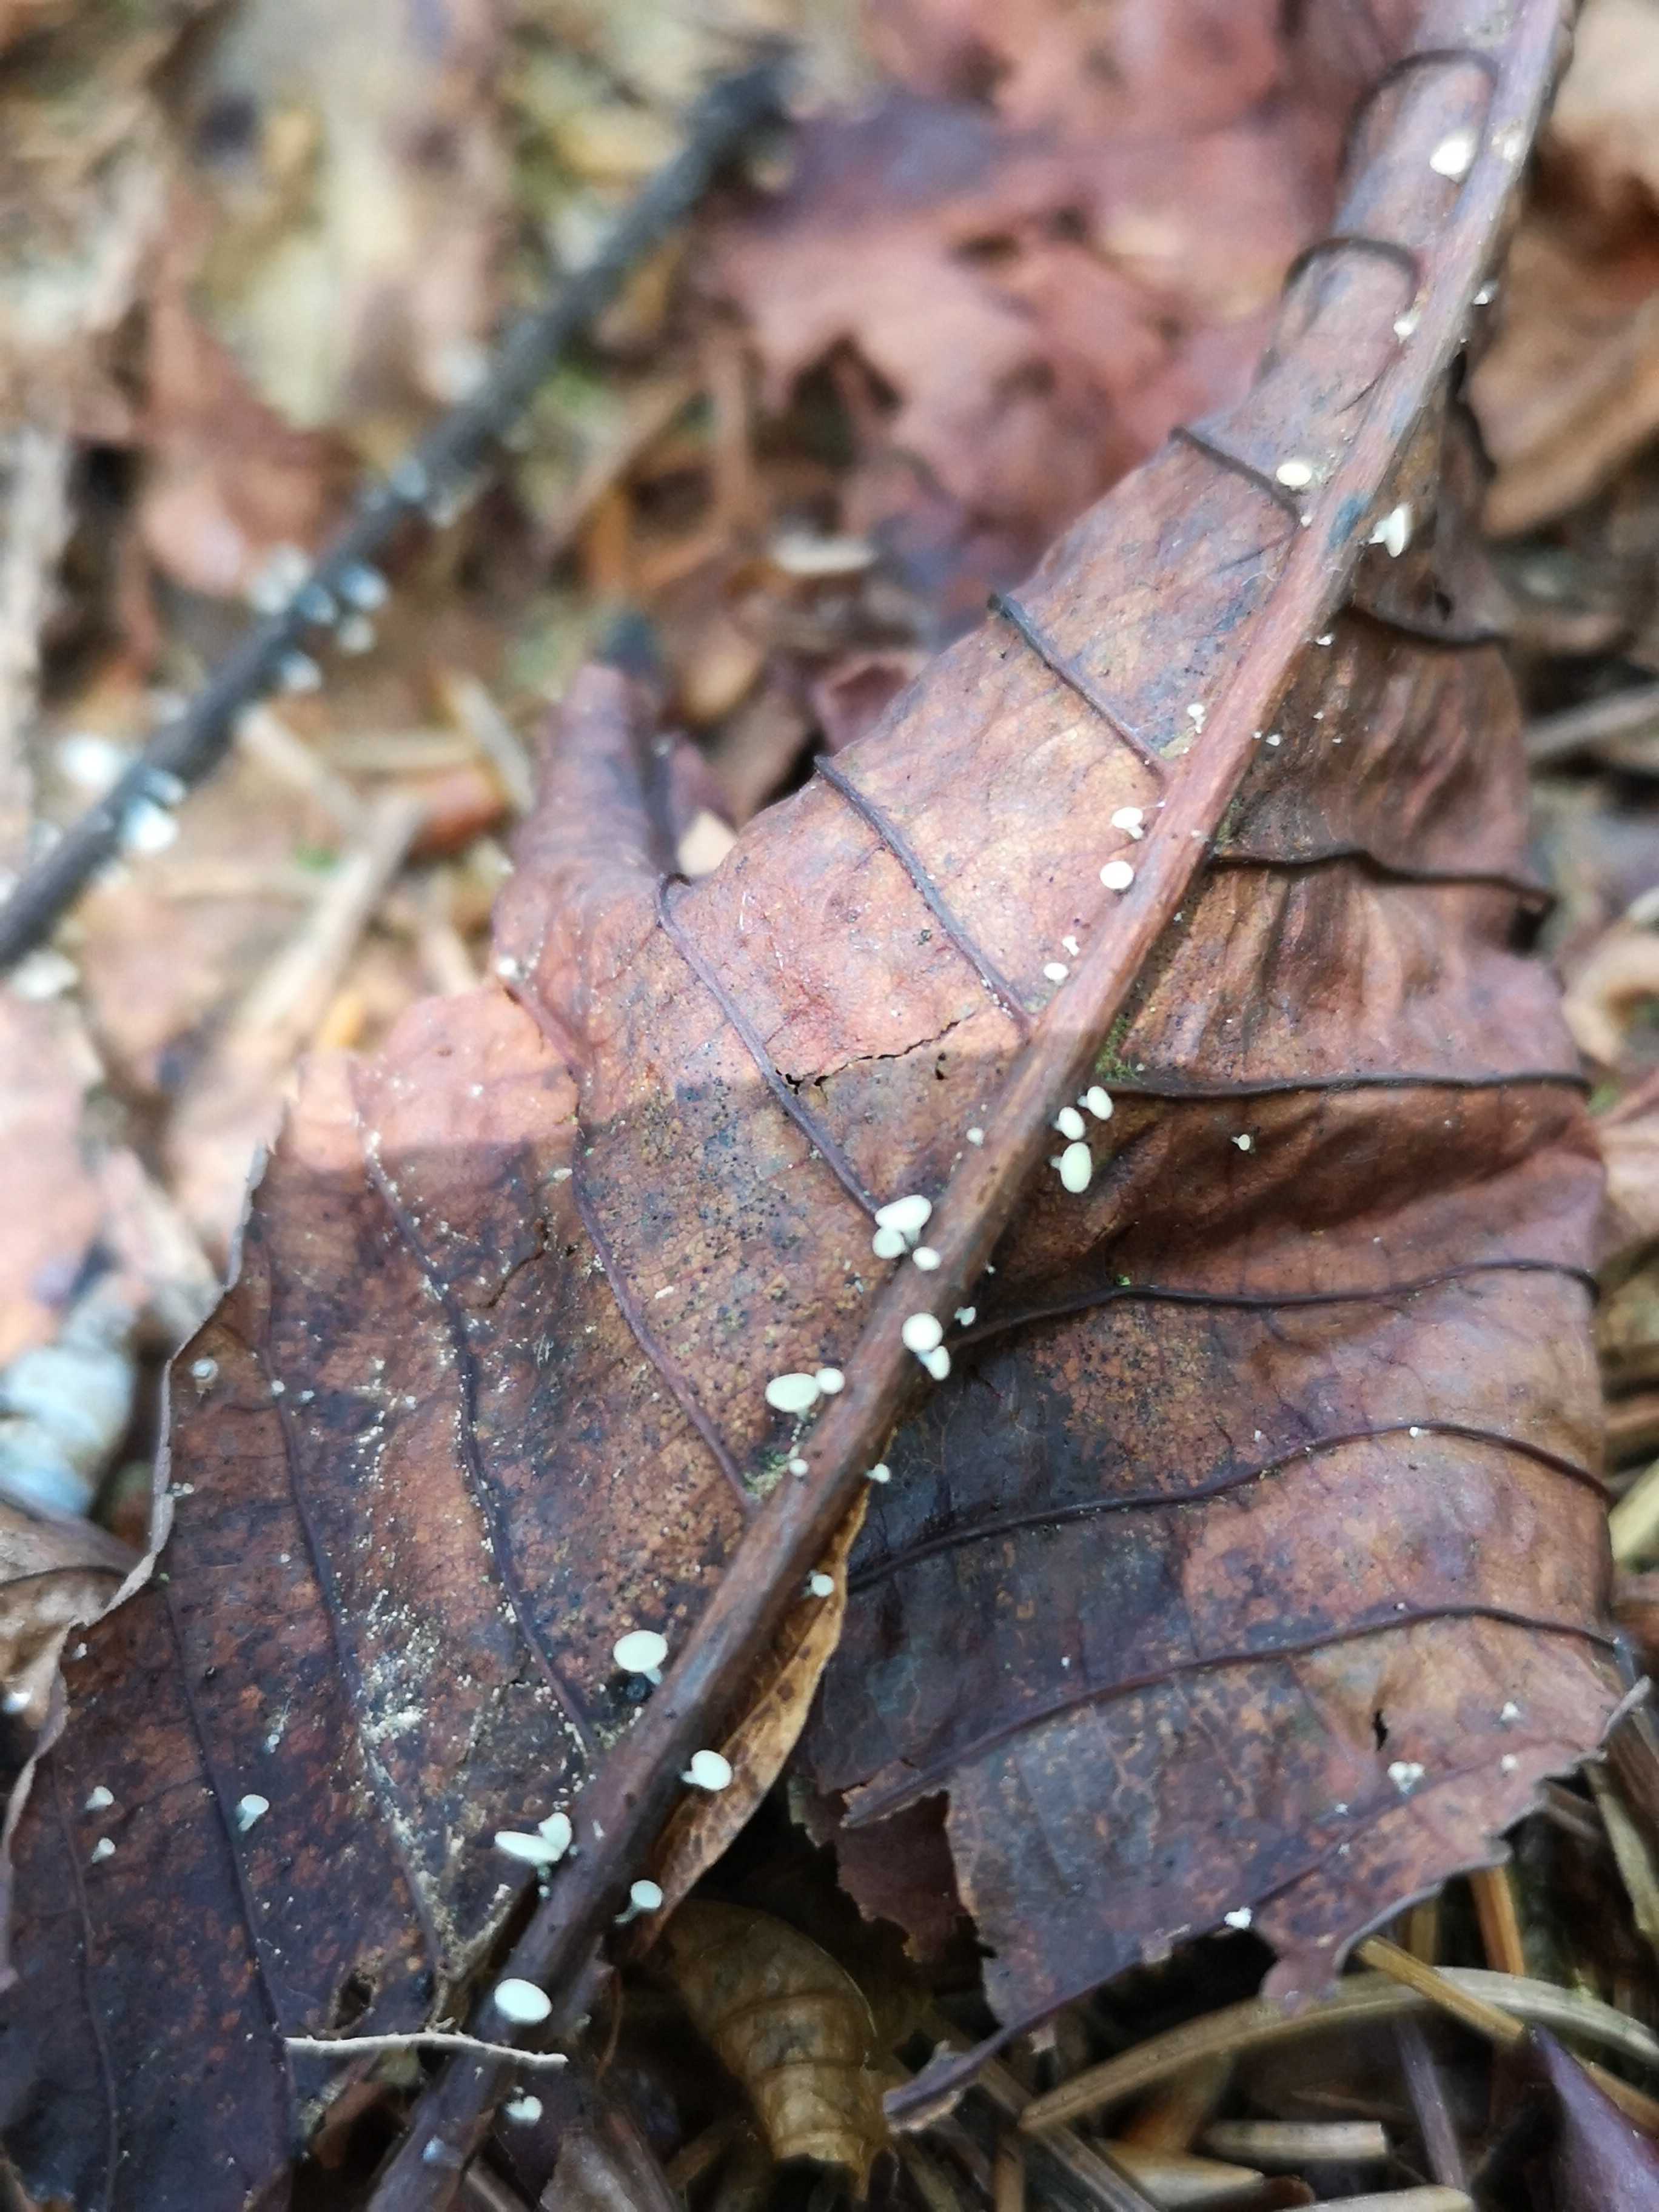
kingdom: Fungi
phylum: Ascomycota
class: Leotiomycetes
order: Helotiales
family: Helotiaceae
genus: Hymenoscyphus
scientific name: Hymenoscyphus aesculi
